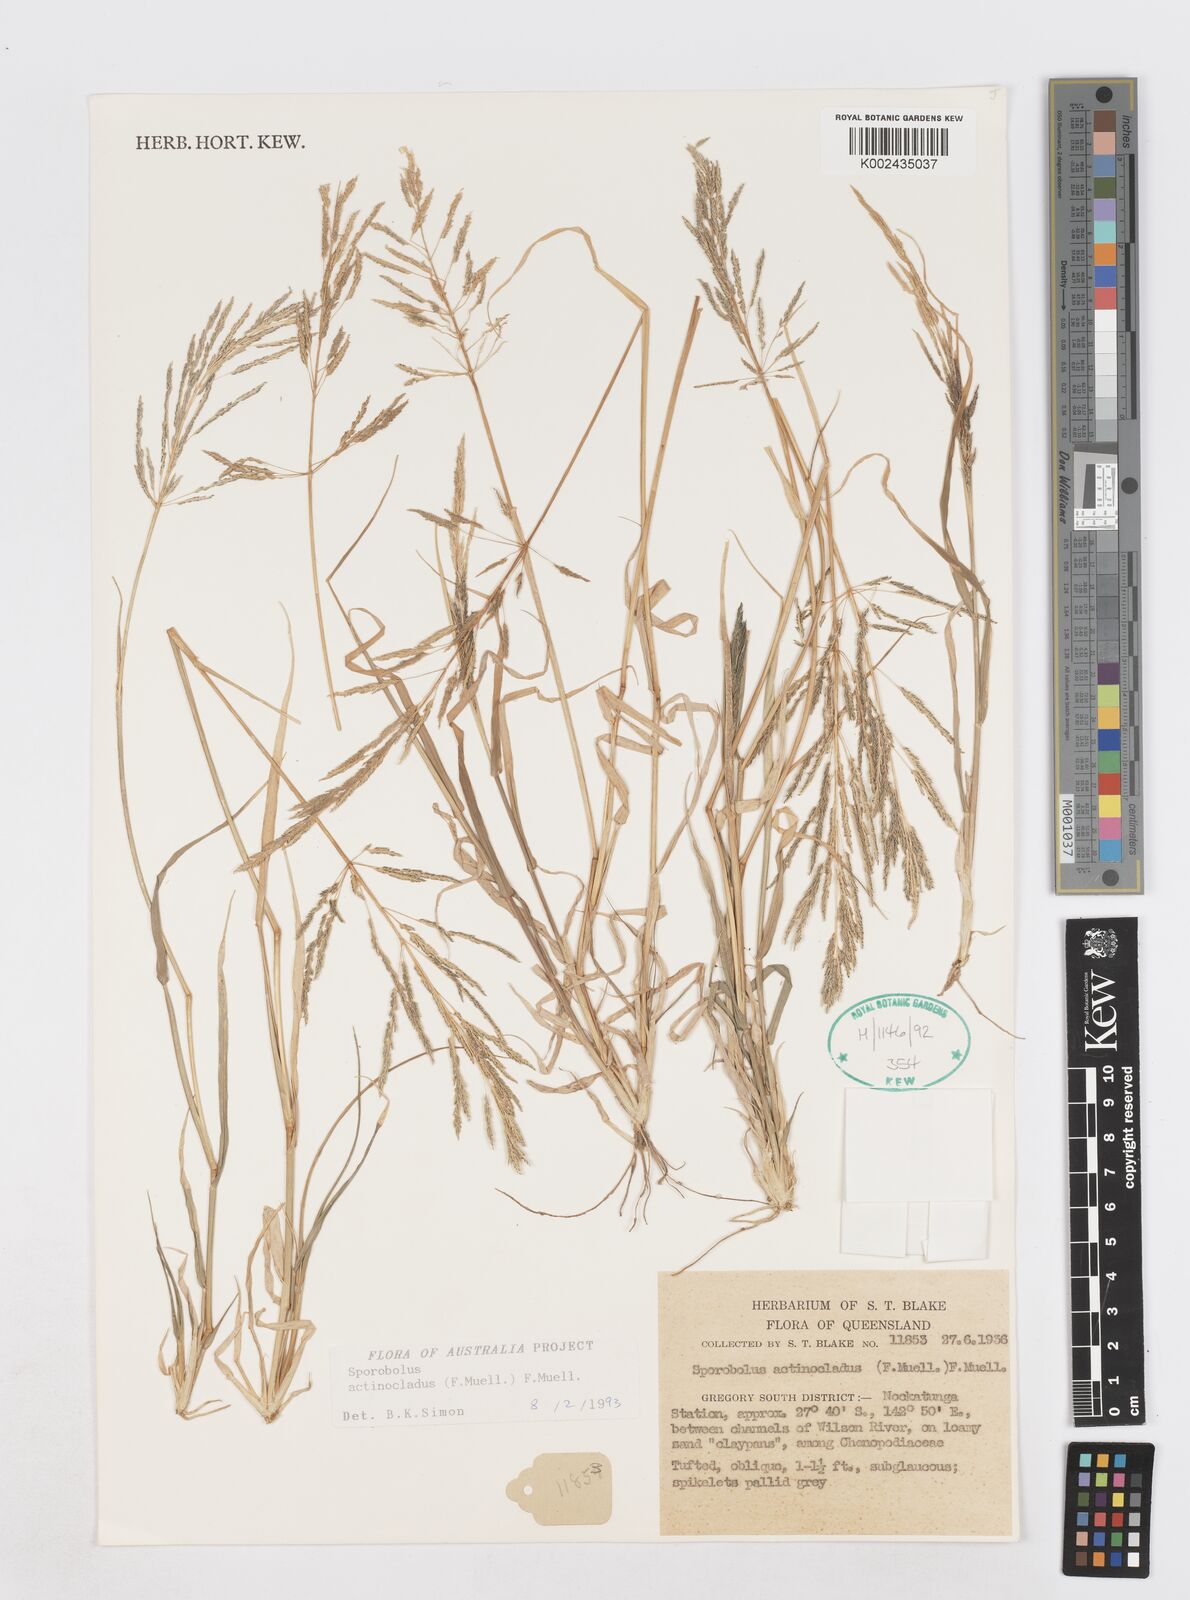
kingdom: Plantae
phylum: Tracheophyta
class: Liliopsida
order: Poales
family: Poaceae
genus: Sporobolus
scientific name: Sporobolus actinocladus
